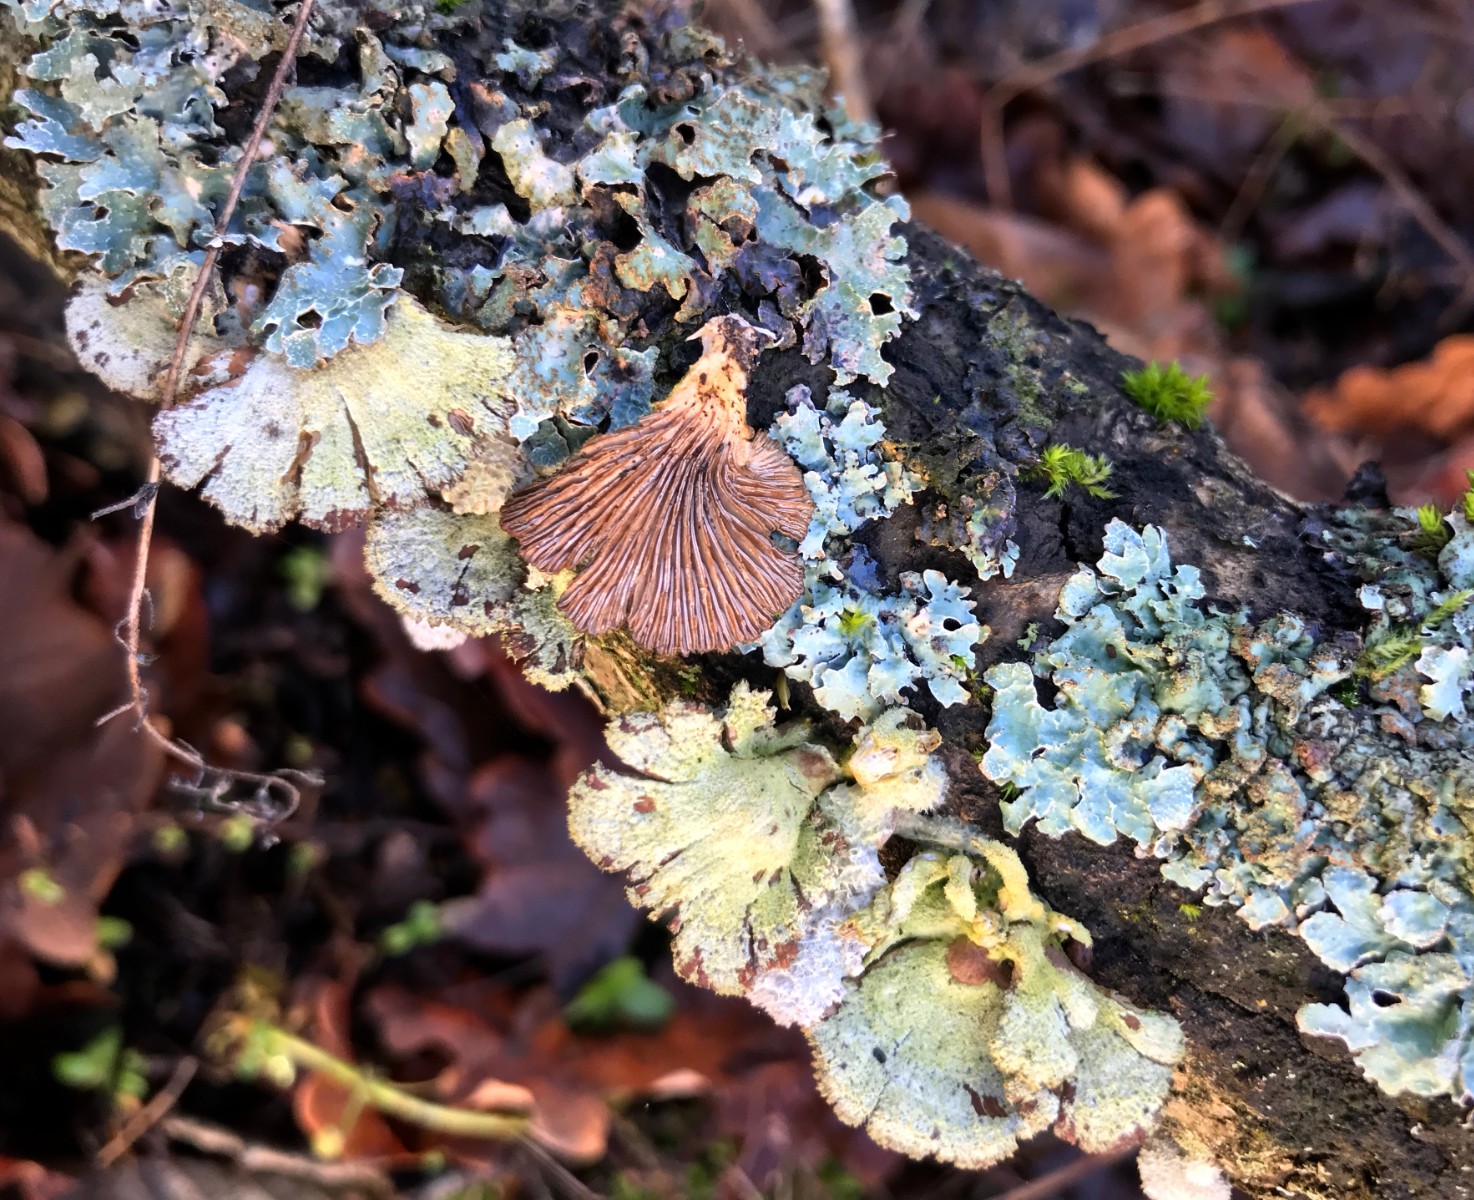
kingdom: Fungi
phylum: Basidiomycota
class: Agaricomycetes
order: Agaricales
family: Schizophyllaceae
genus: Schizophyllum
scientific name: Schizophyllum commune
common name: kløvblad
